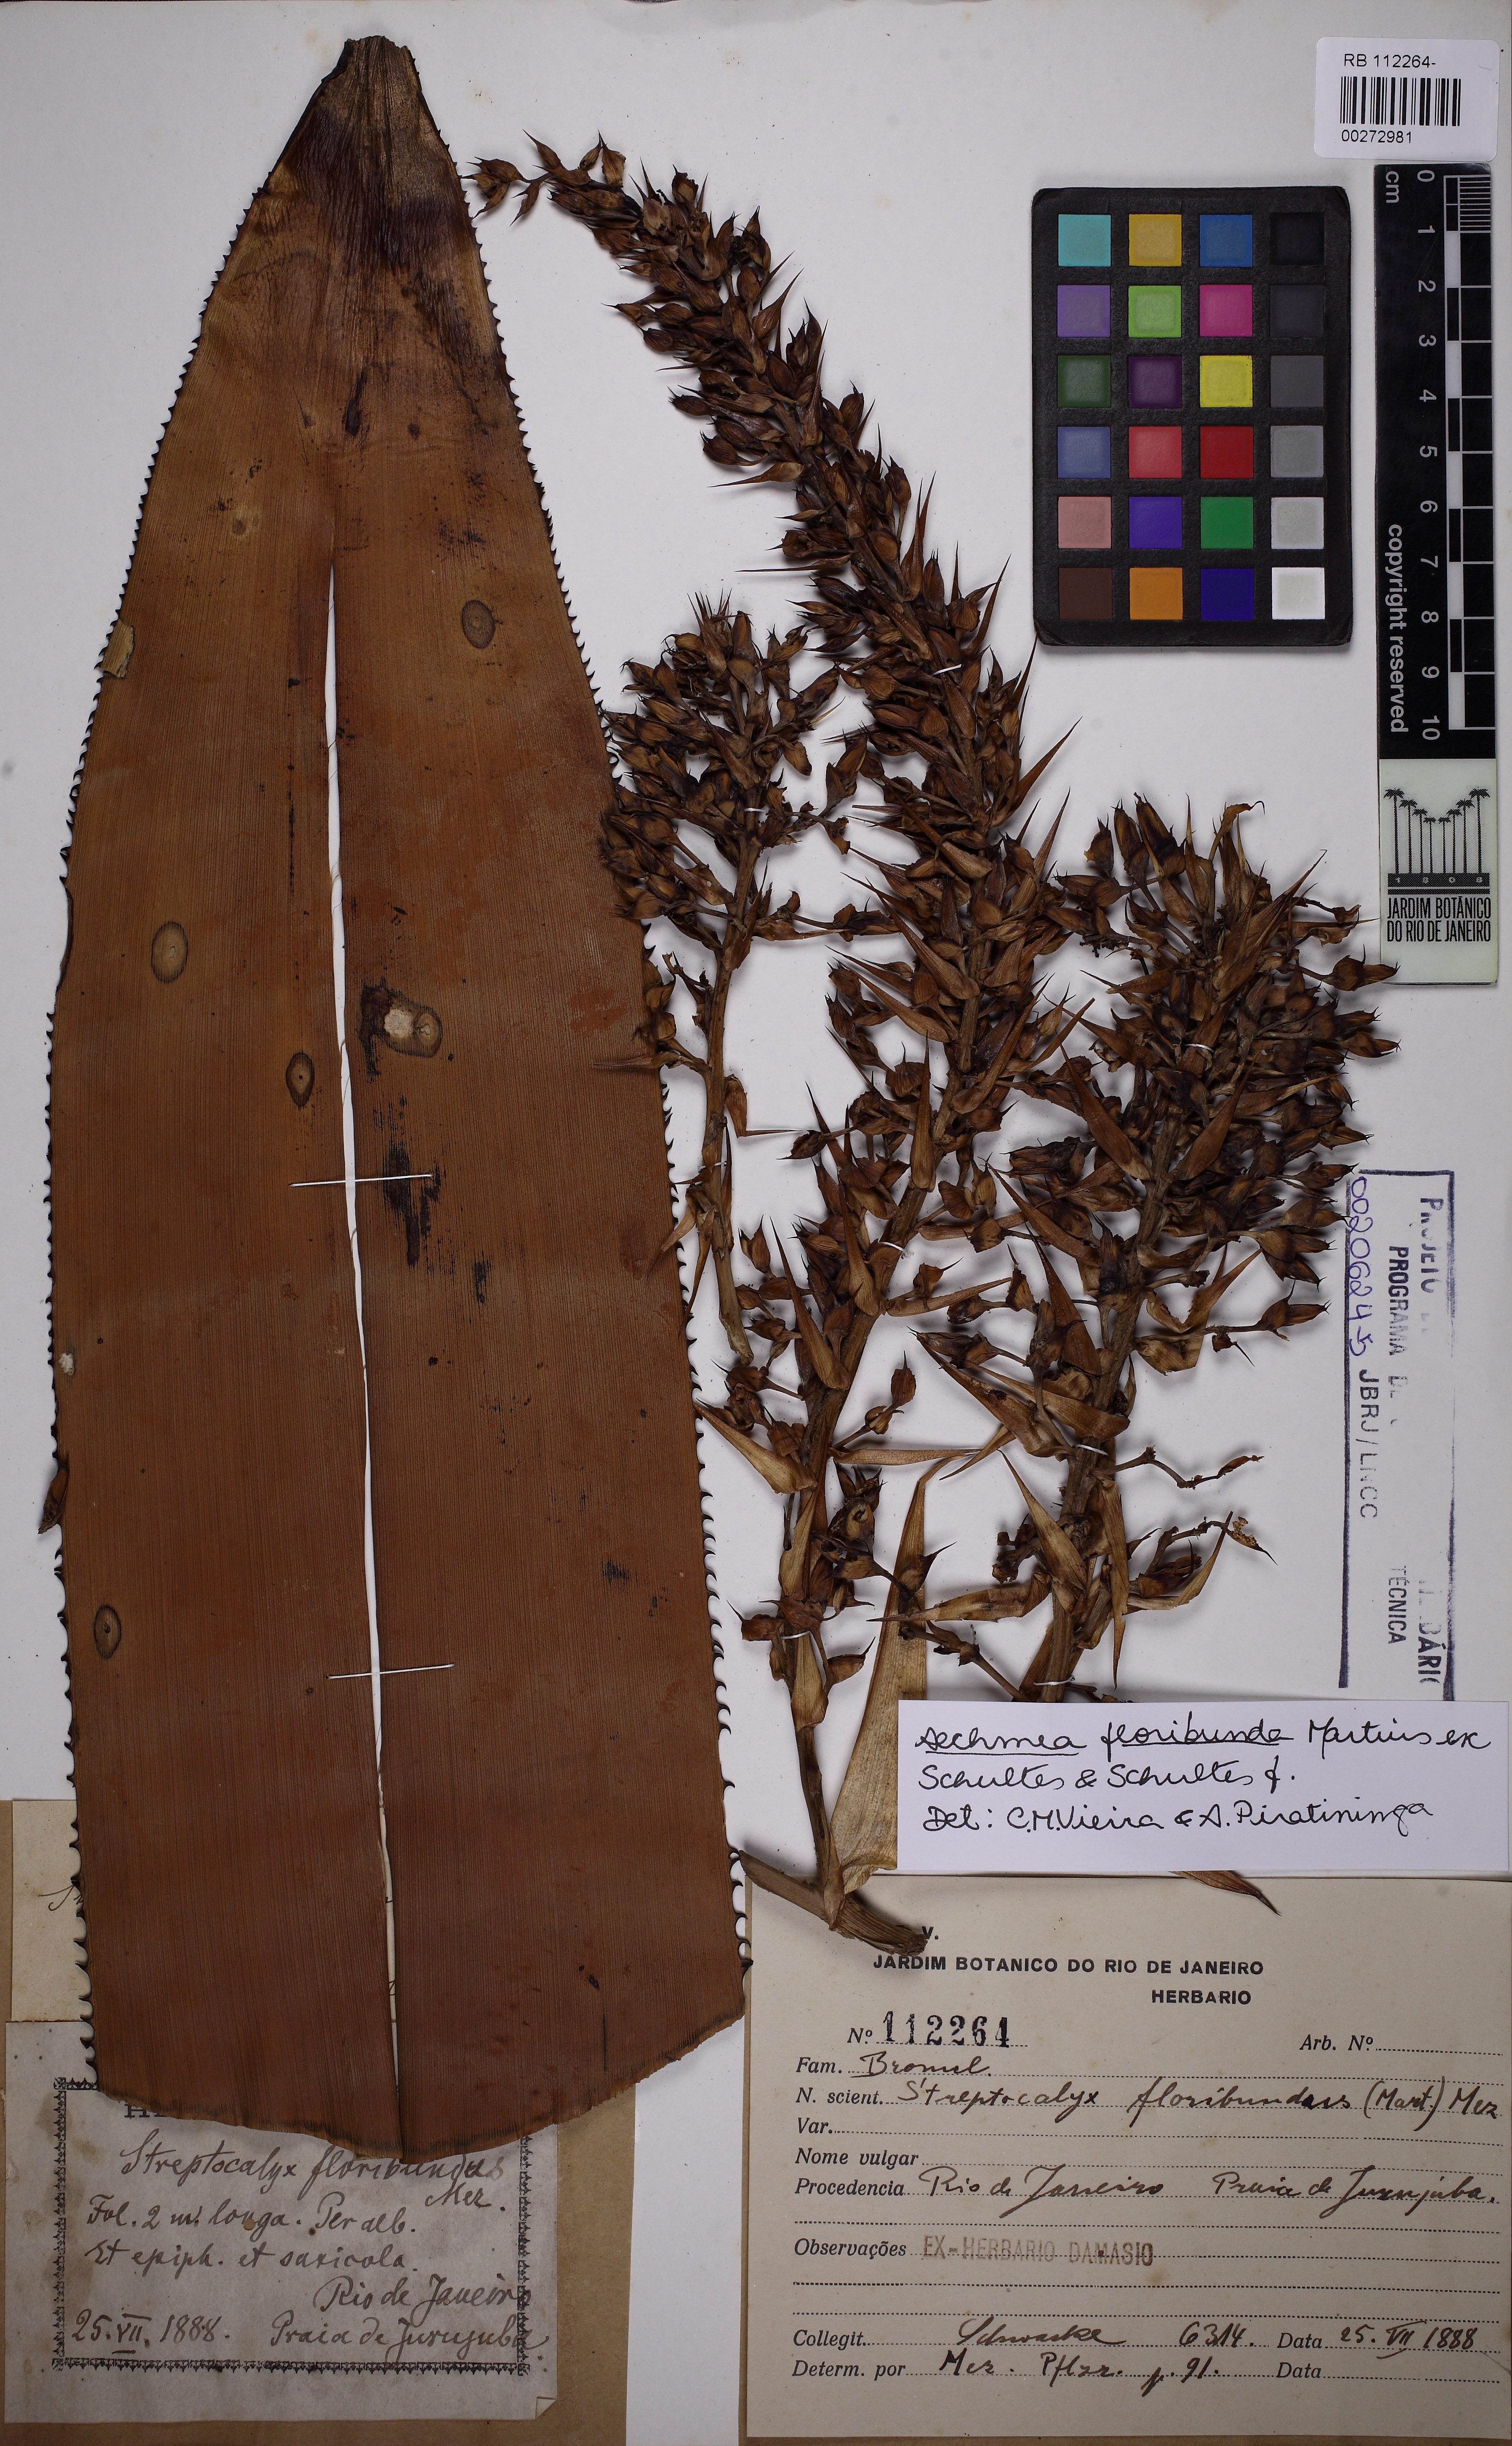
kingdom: Plantae
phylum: Tracheophyta
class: Liliopsida
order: Poales
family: Bromeliaceae
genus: Aechmea
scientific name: Aechmea floribunda
